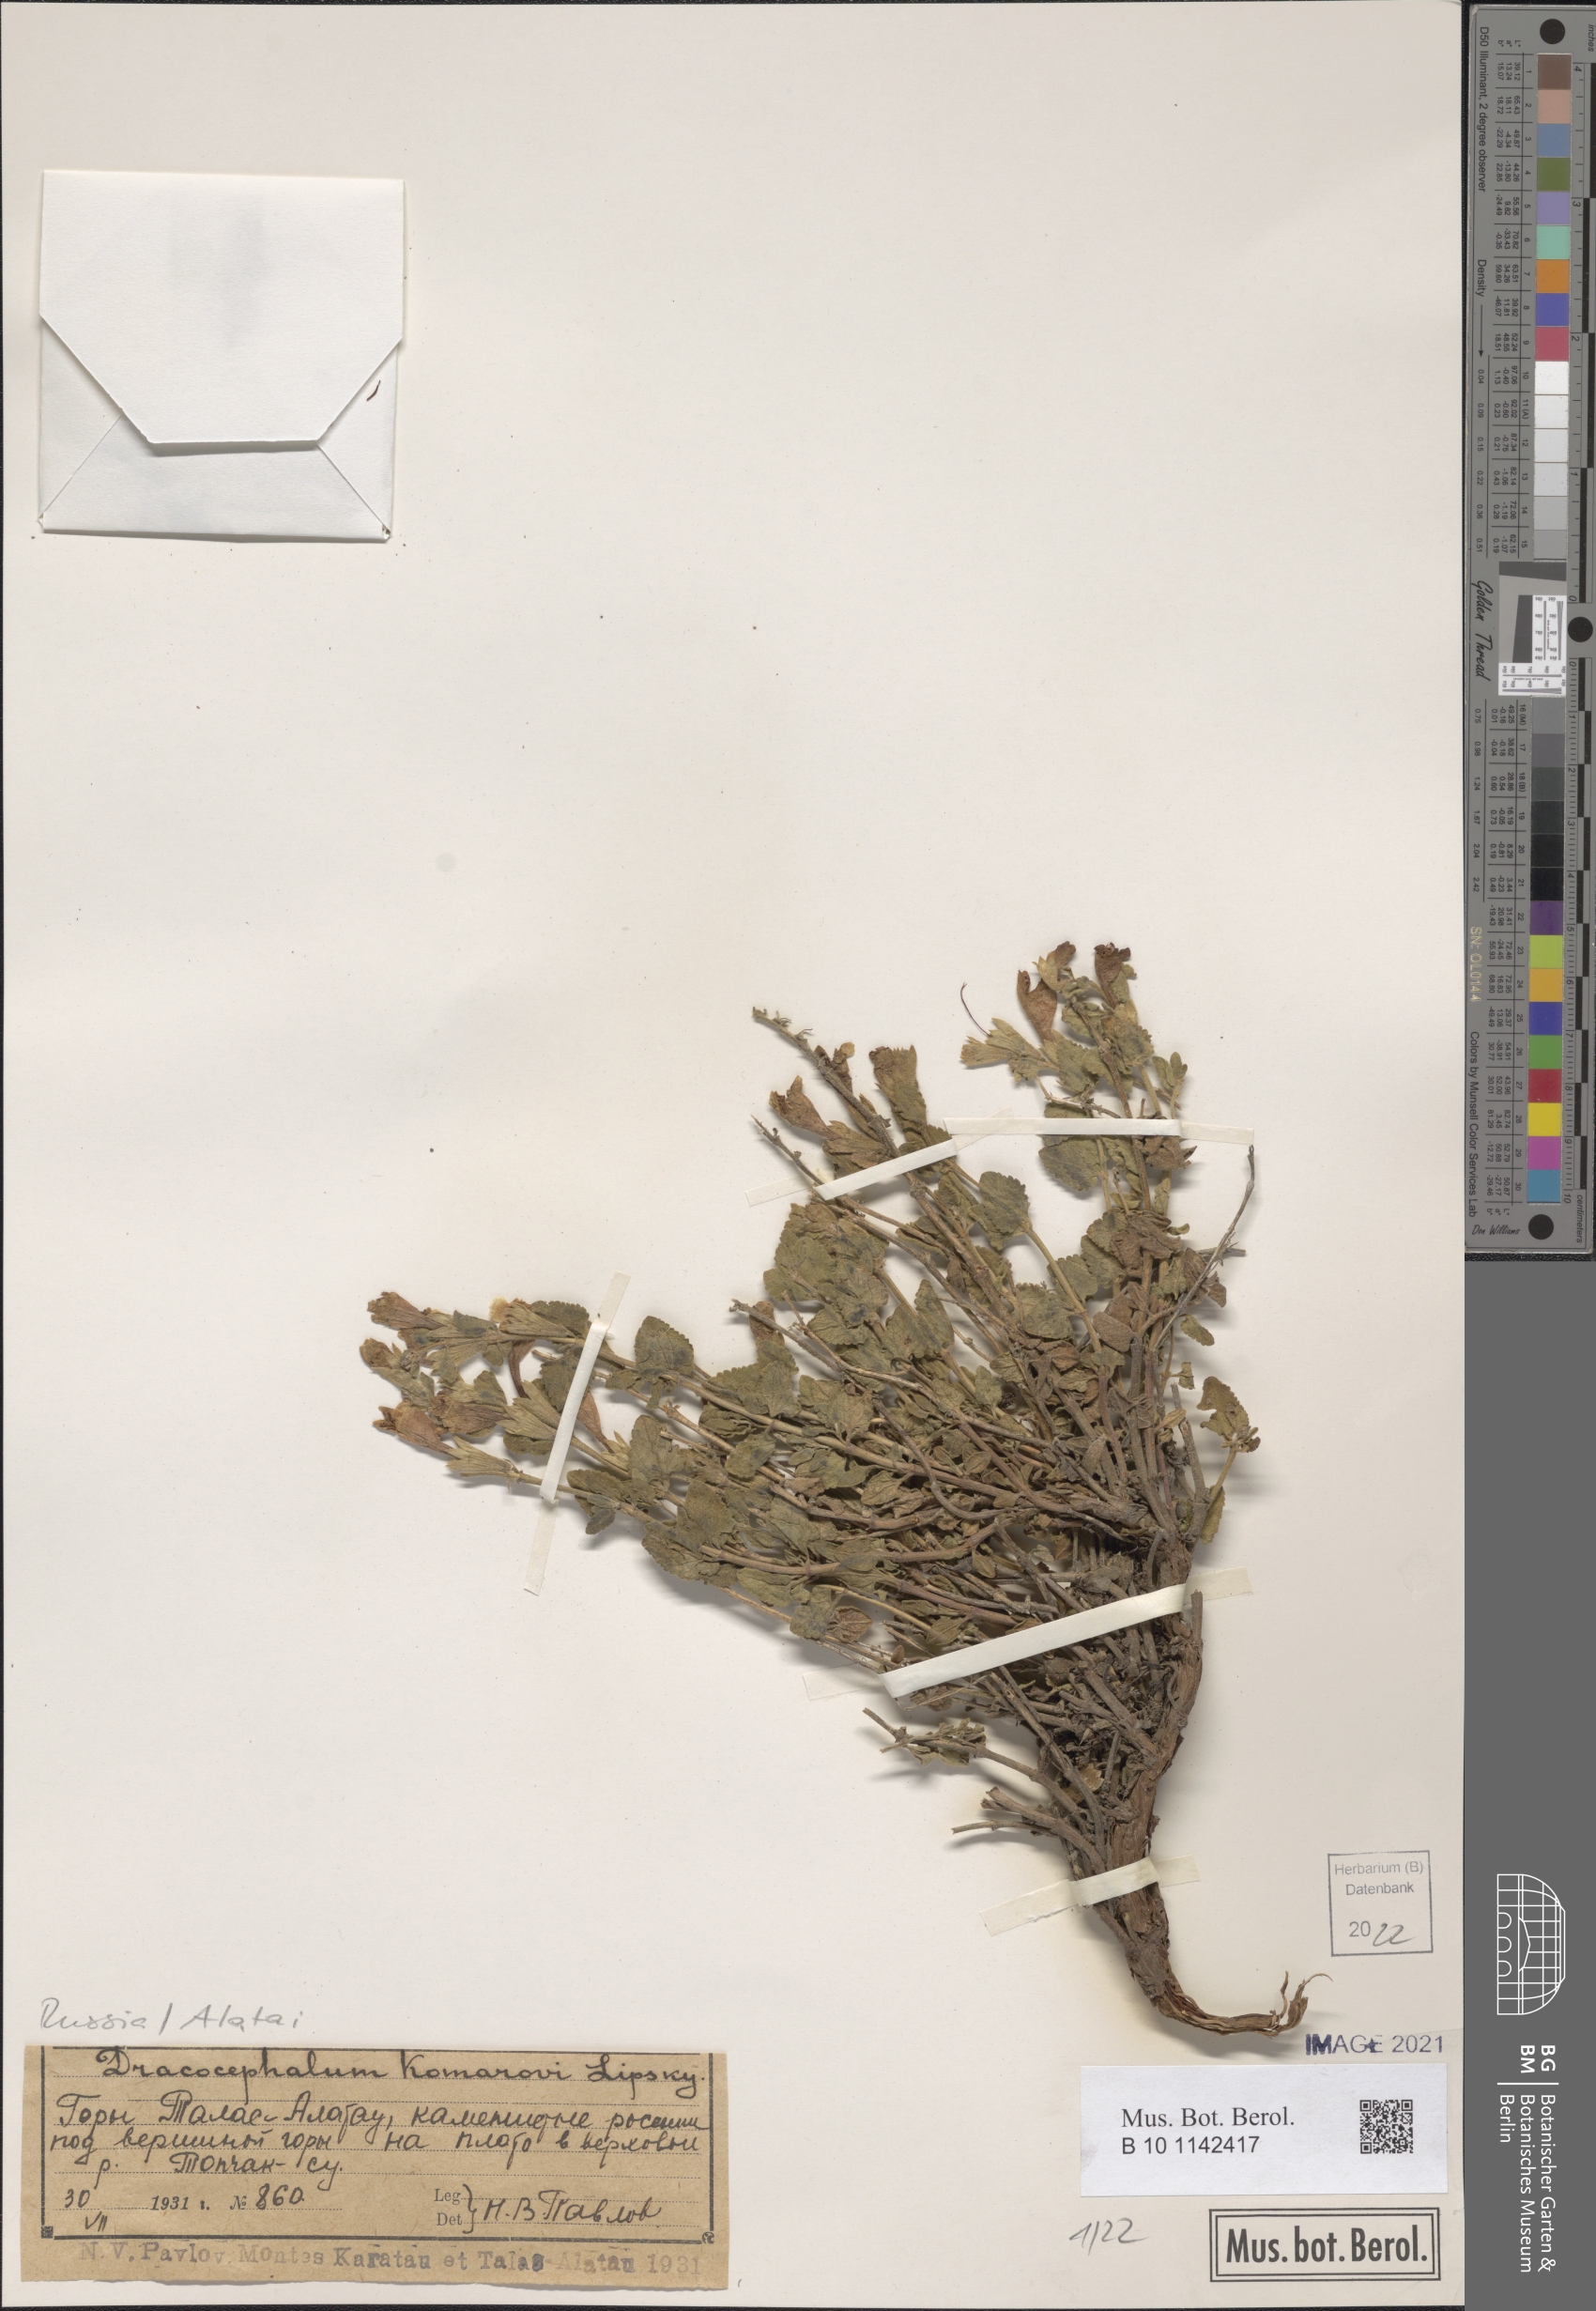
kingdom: Plantae
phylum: Tracheophyta
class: Magnoliopsida
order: Lamiales
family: Lamiaceae
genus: Dracocephalum
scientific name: Dracocephalum komarovii
